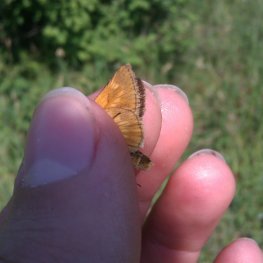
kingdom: Animalia
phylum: Arthropoda
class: Insecta
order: Lepidoptera
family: Hesperiidae
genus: Polites
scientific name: Polites
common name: Long Dash Skipper
